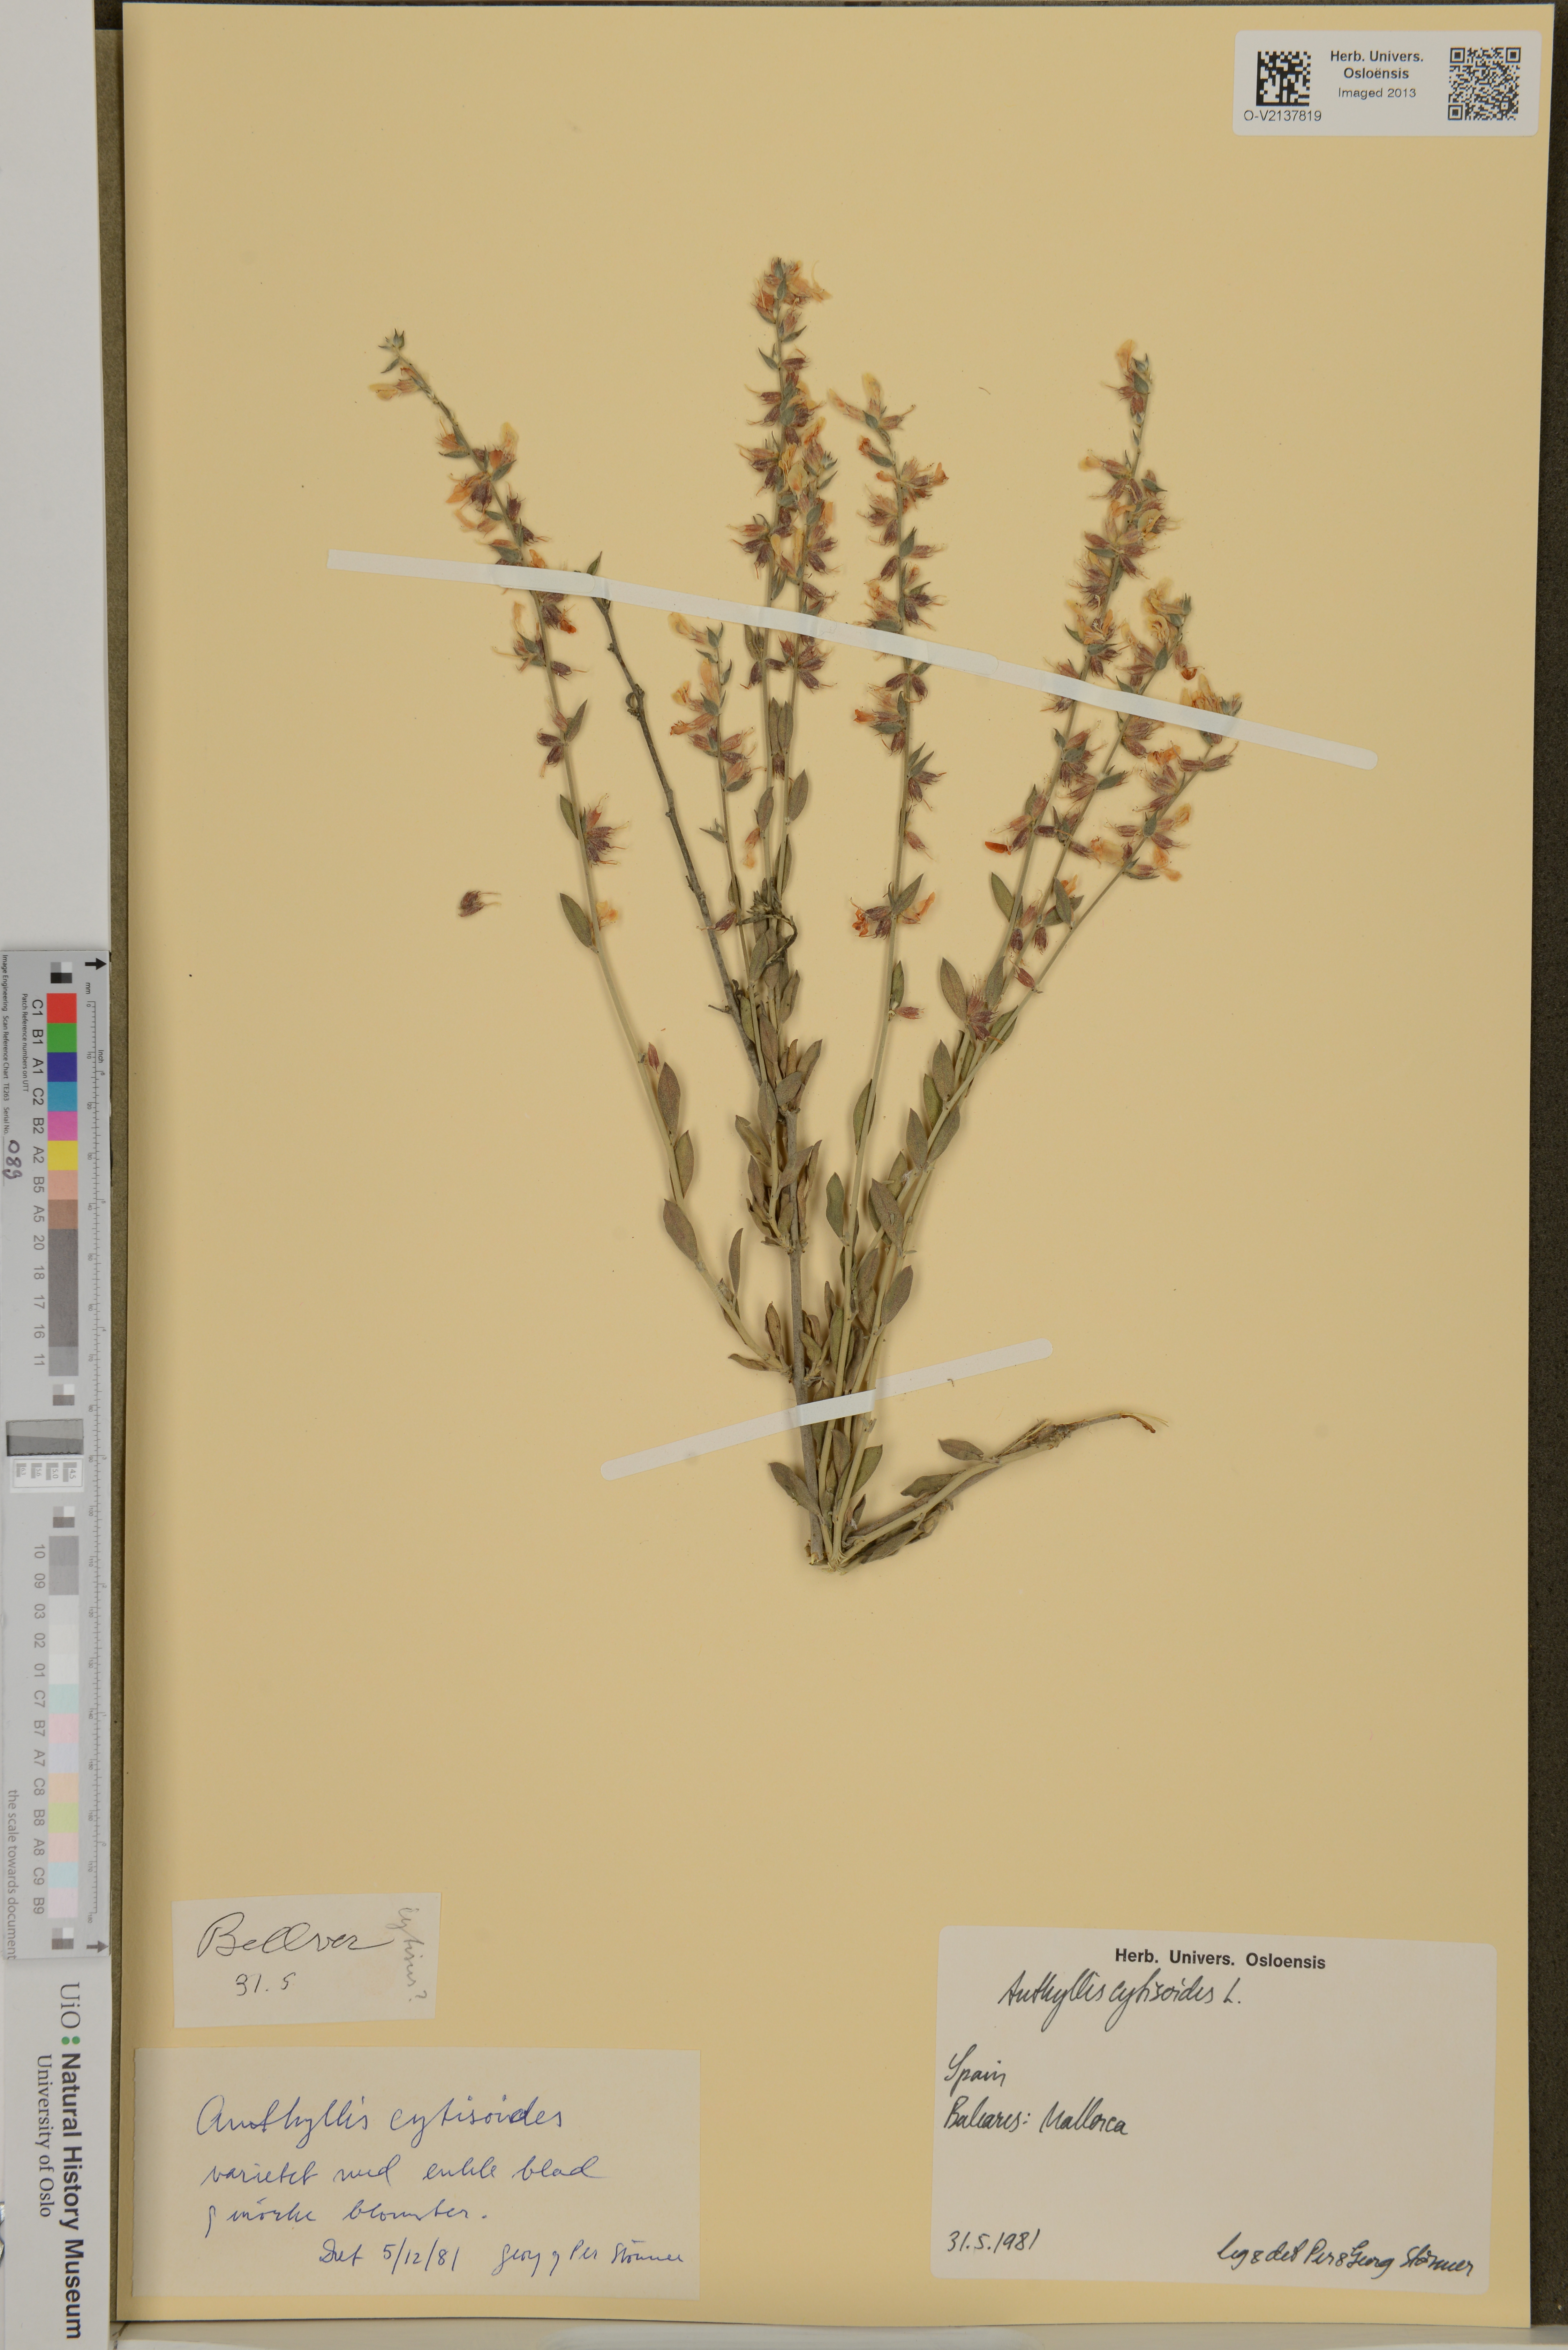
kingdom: Plantae
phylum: Tracheophyta
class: Magnoliopsida
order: Fabales
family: Fabaceae
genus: Anthyllis
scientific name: Anthyllis cytisoides
